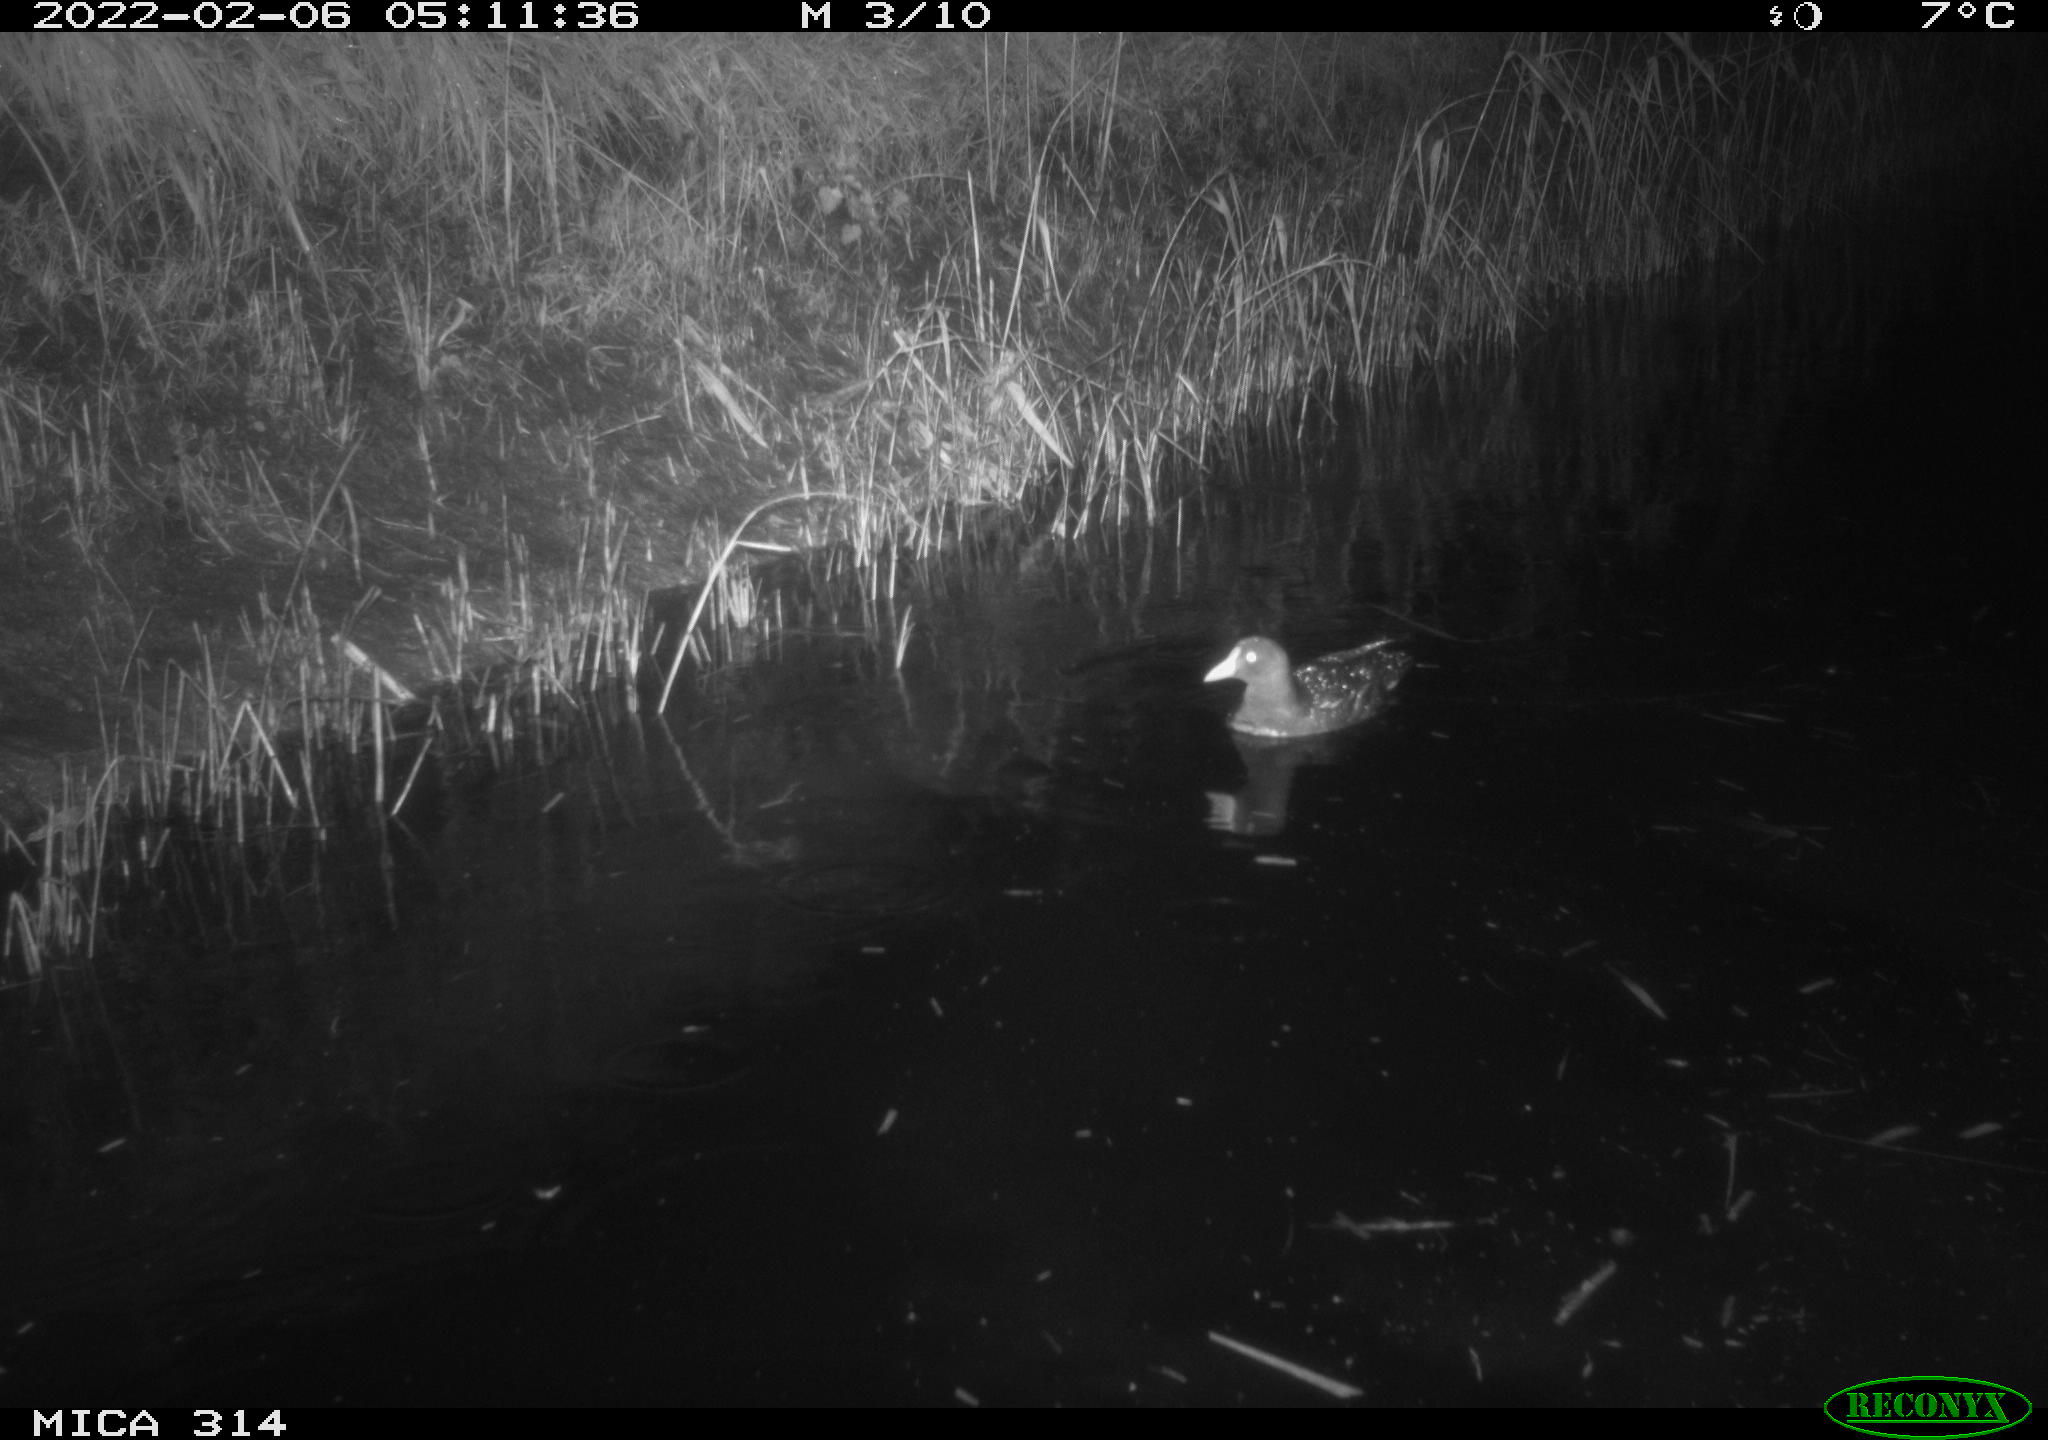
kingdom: Animalia
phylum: Chordata
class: Aves
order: Gruiformes
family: Rallidae
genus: Gallinula
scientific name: Gallinula chloropus
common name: Common moorhen
